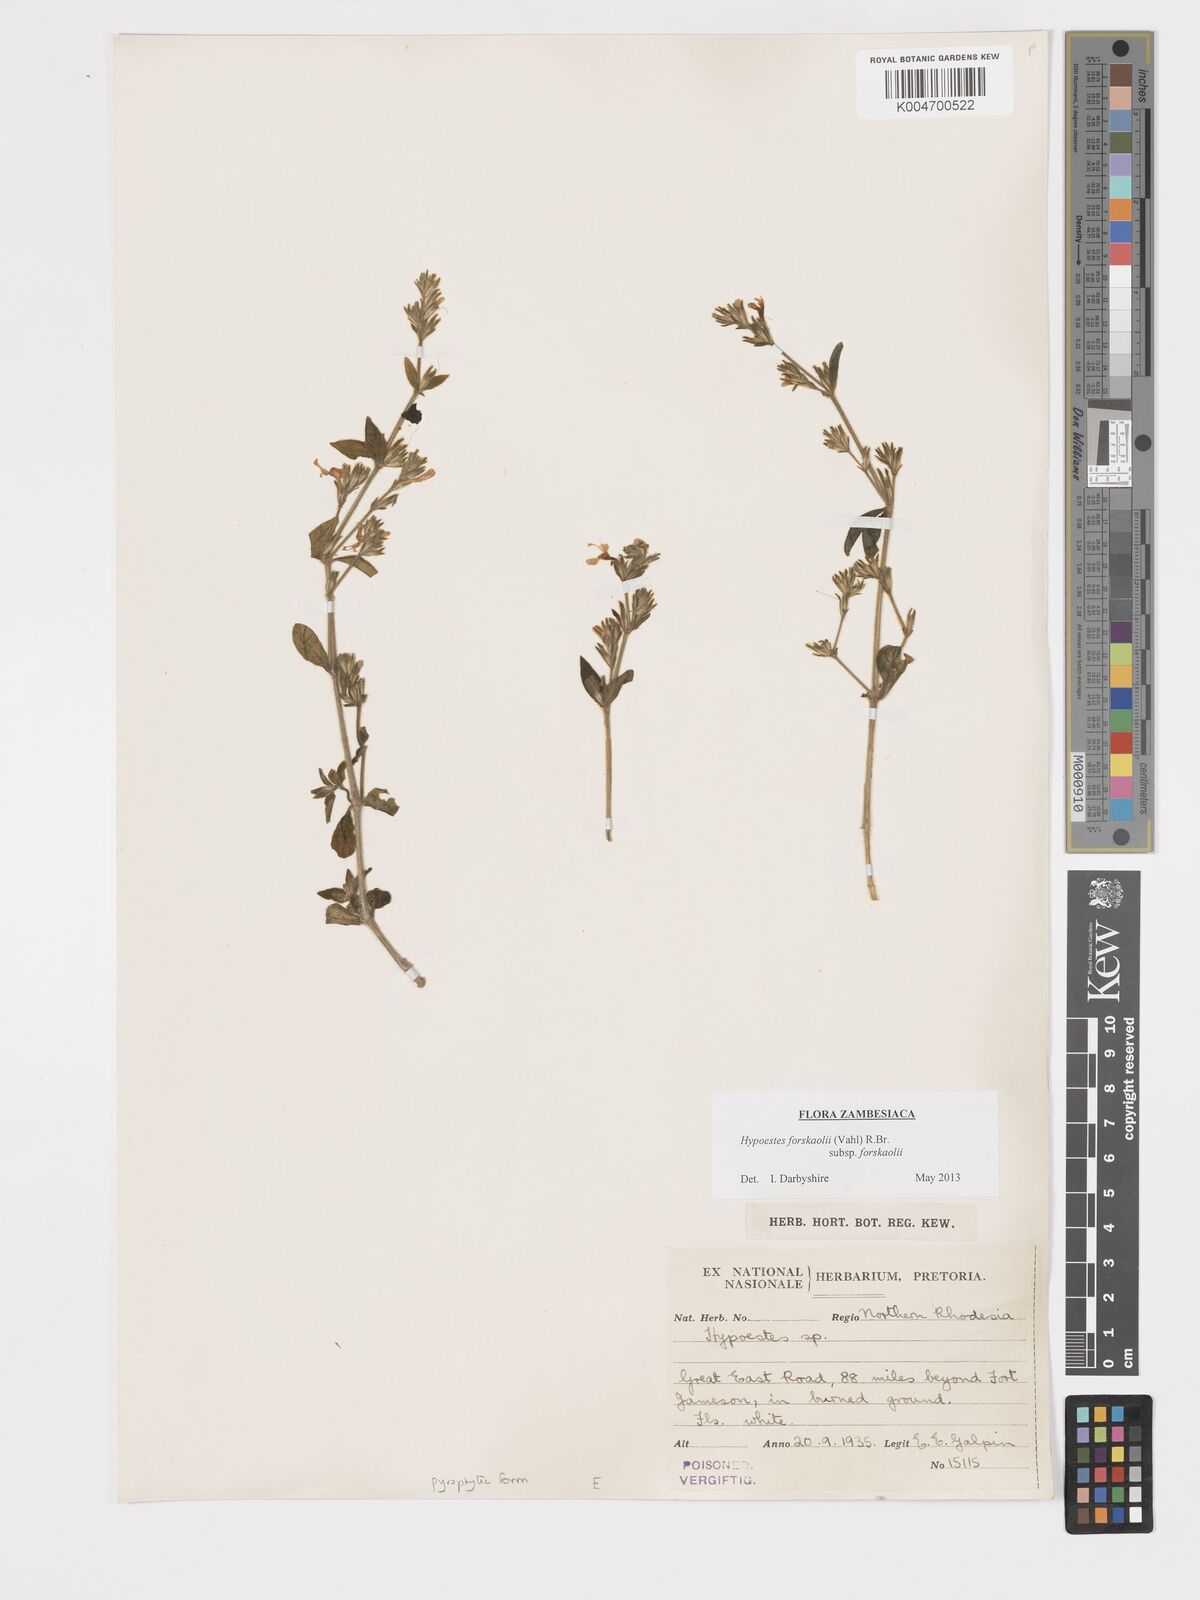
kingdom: Plantae
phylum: Tracheophyta
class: Magnoliopsida
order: Lamiales
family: Acanthaceae
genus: Hypoestes
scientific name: Hypoestes forskaolii
